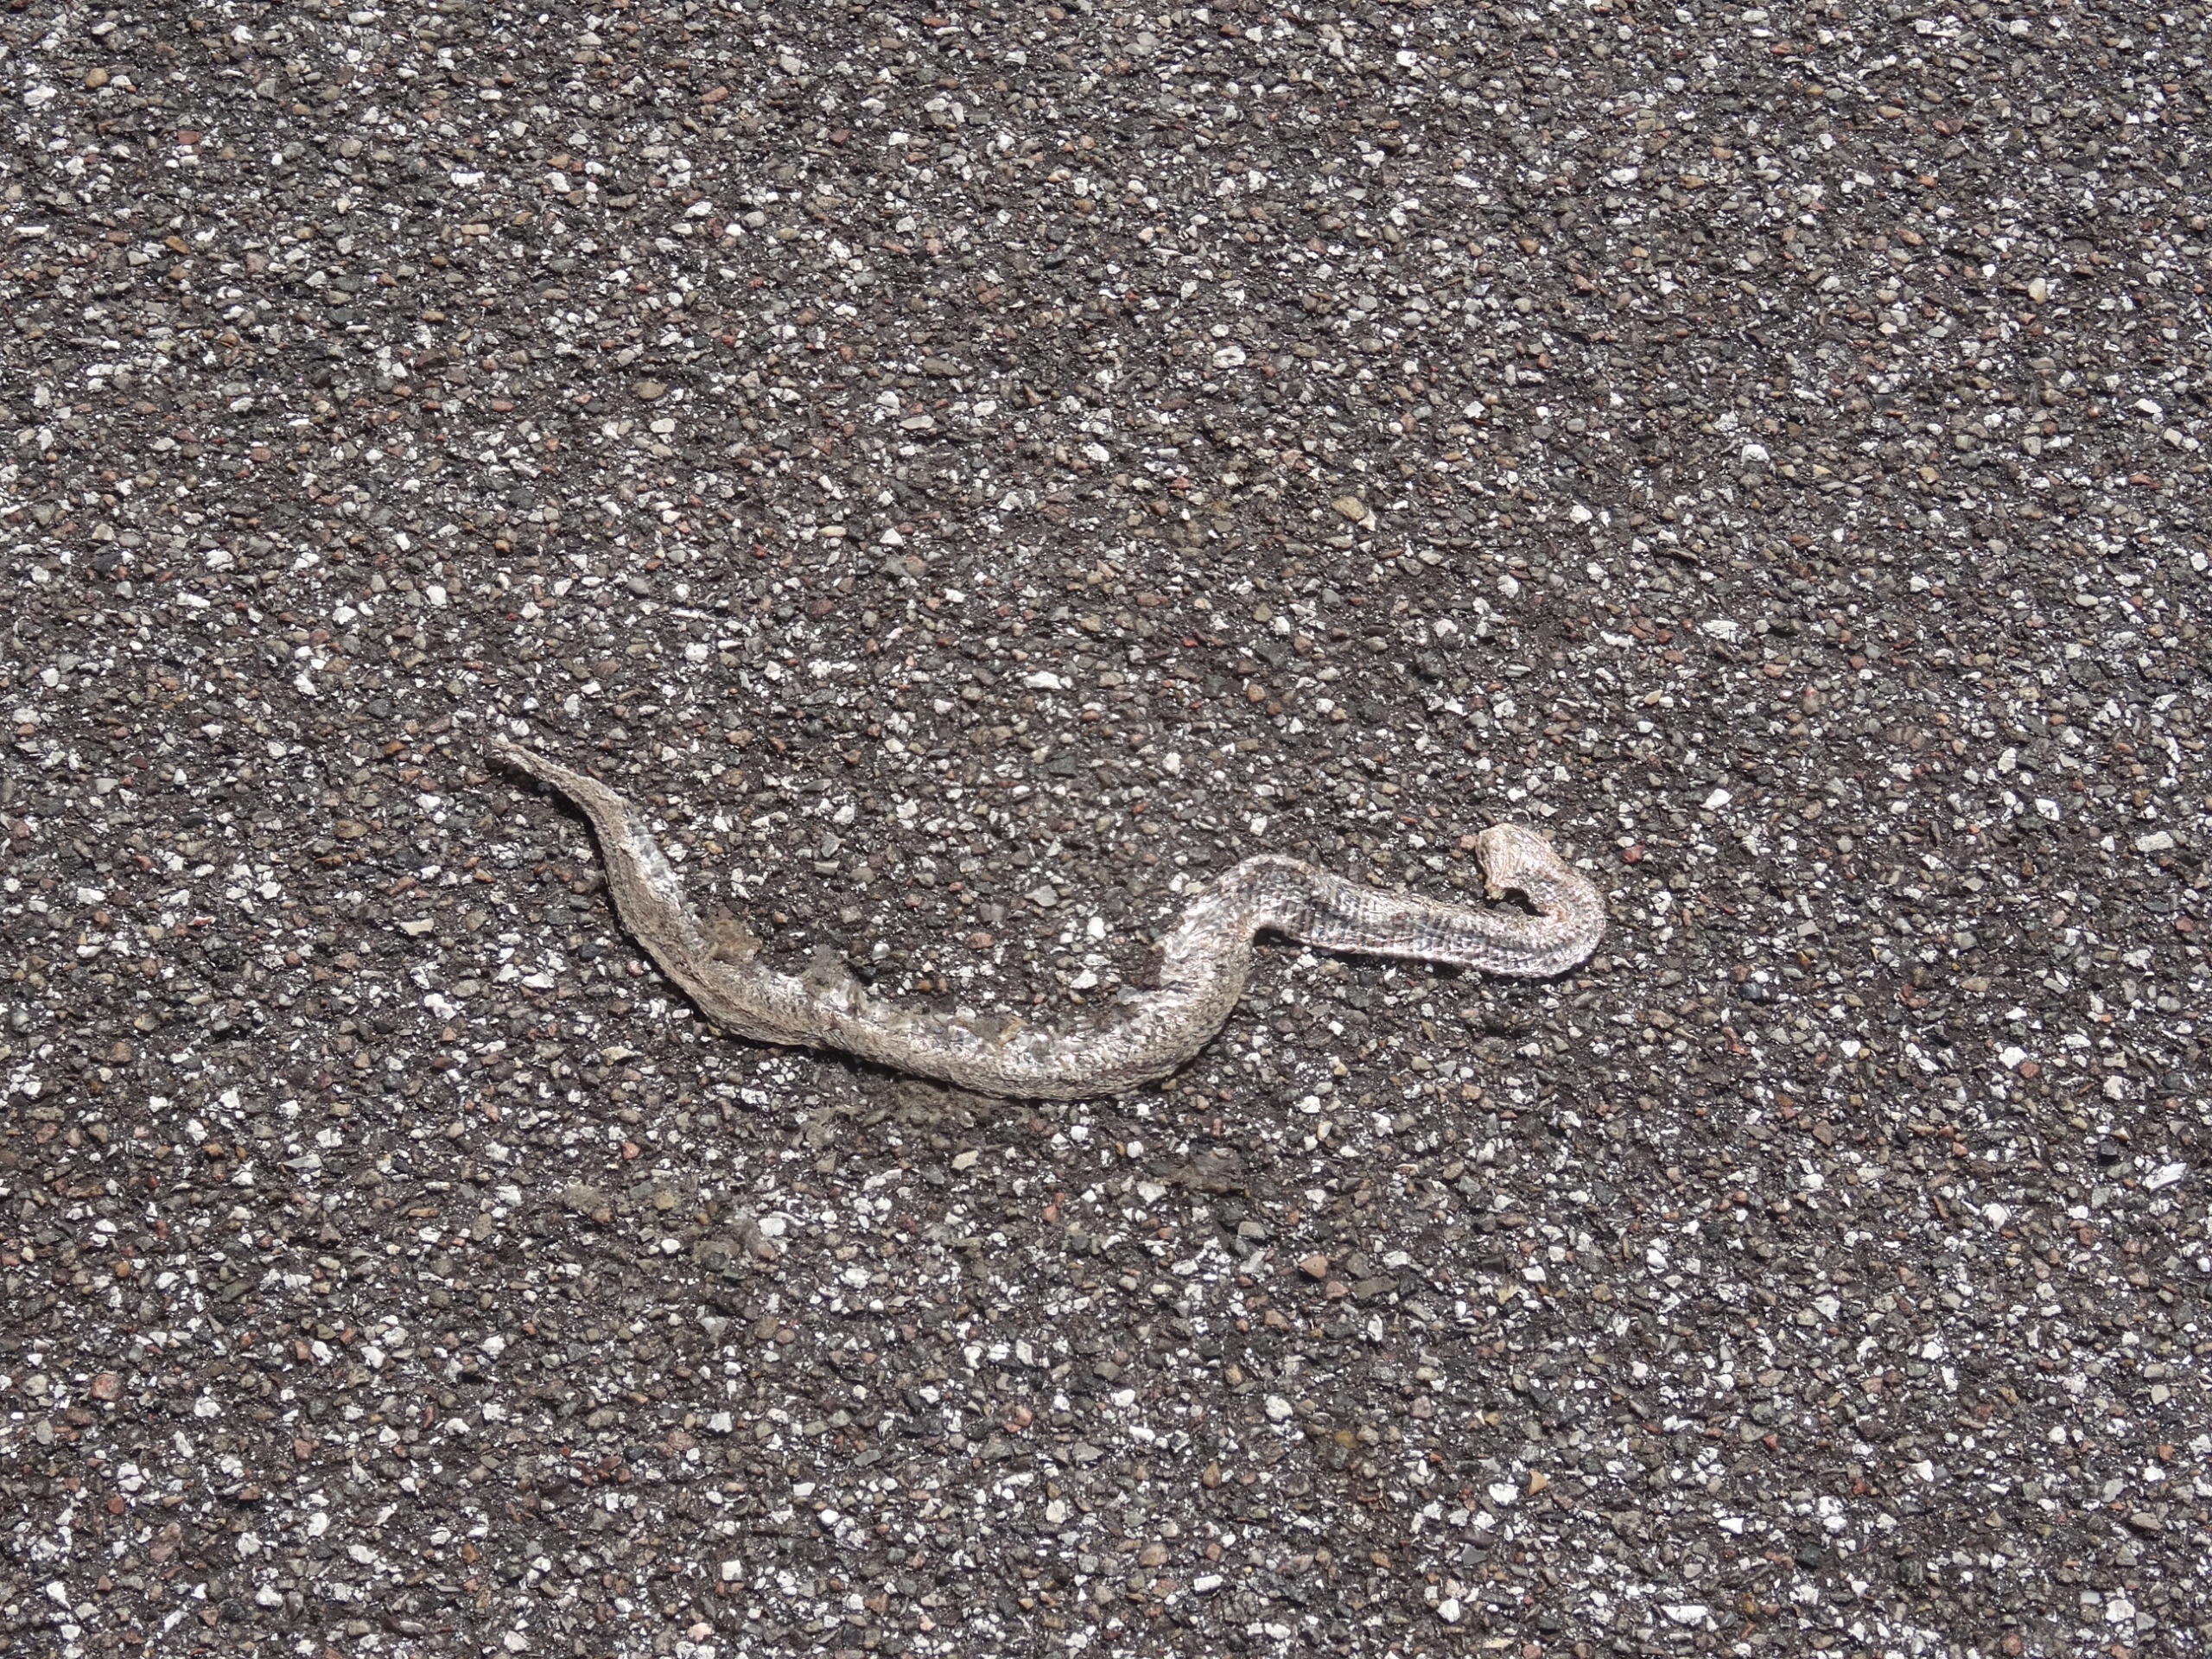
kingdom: Animalia
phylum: Chordata
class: Squamata
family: Viperidae
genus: Vipera
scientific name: Vipera berus
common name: Hugorm
